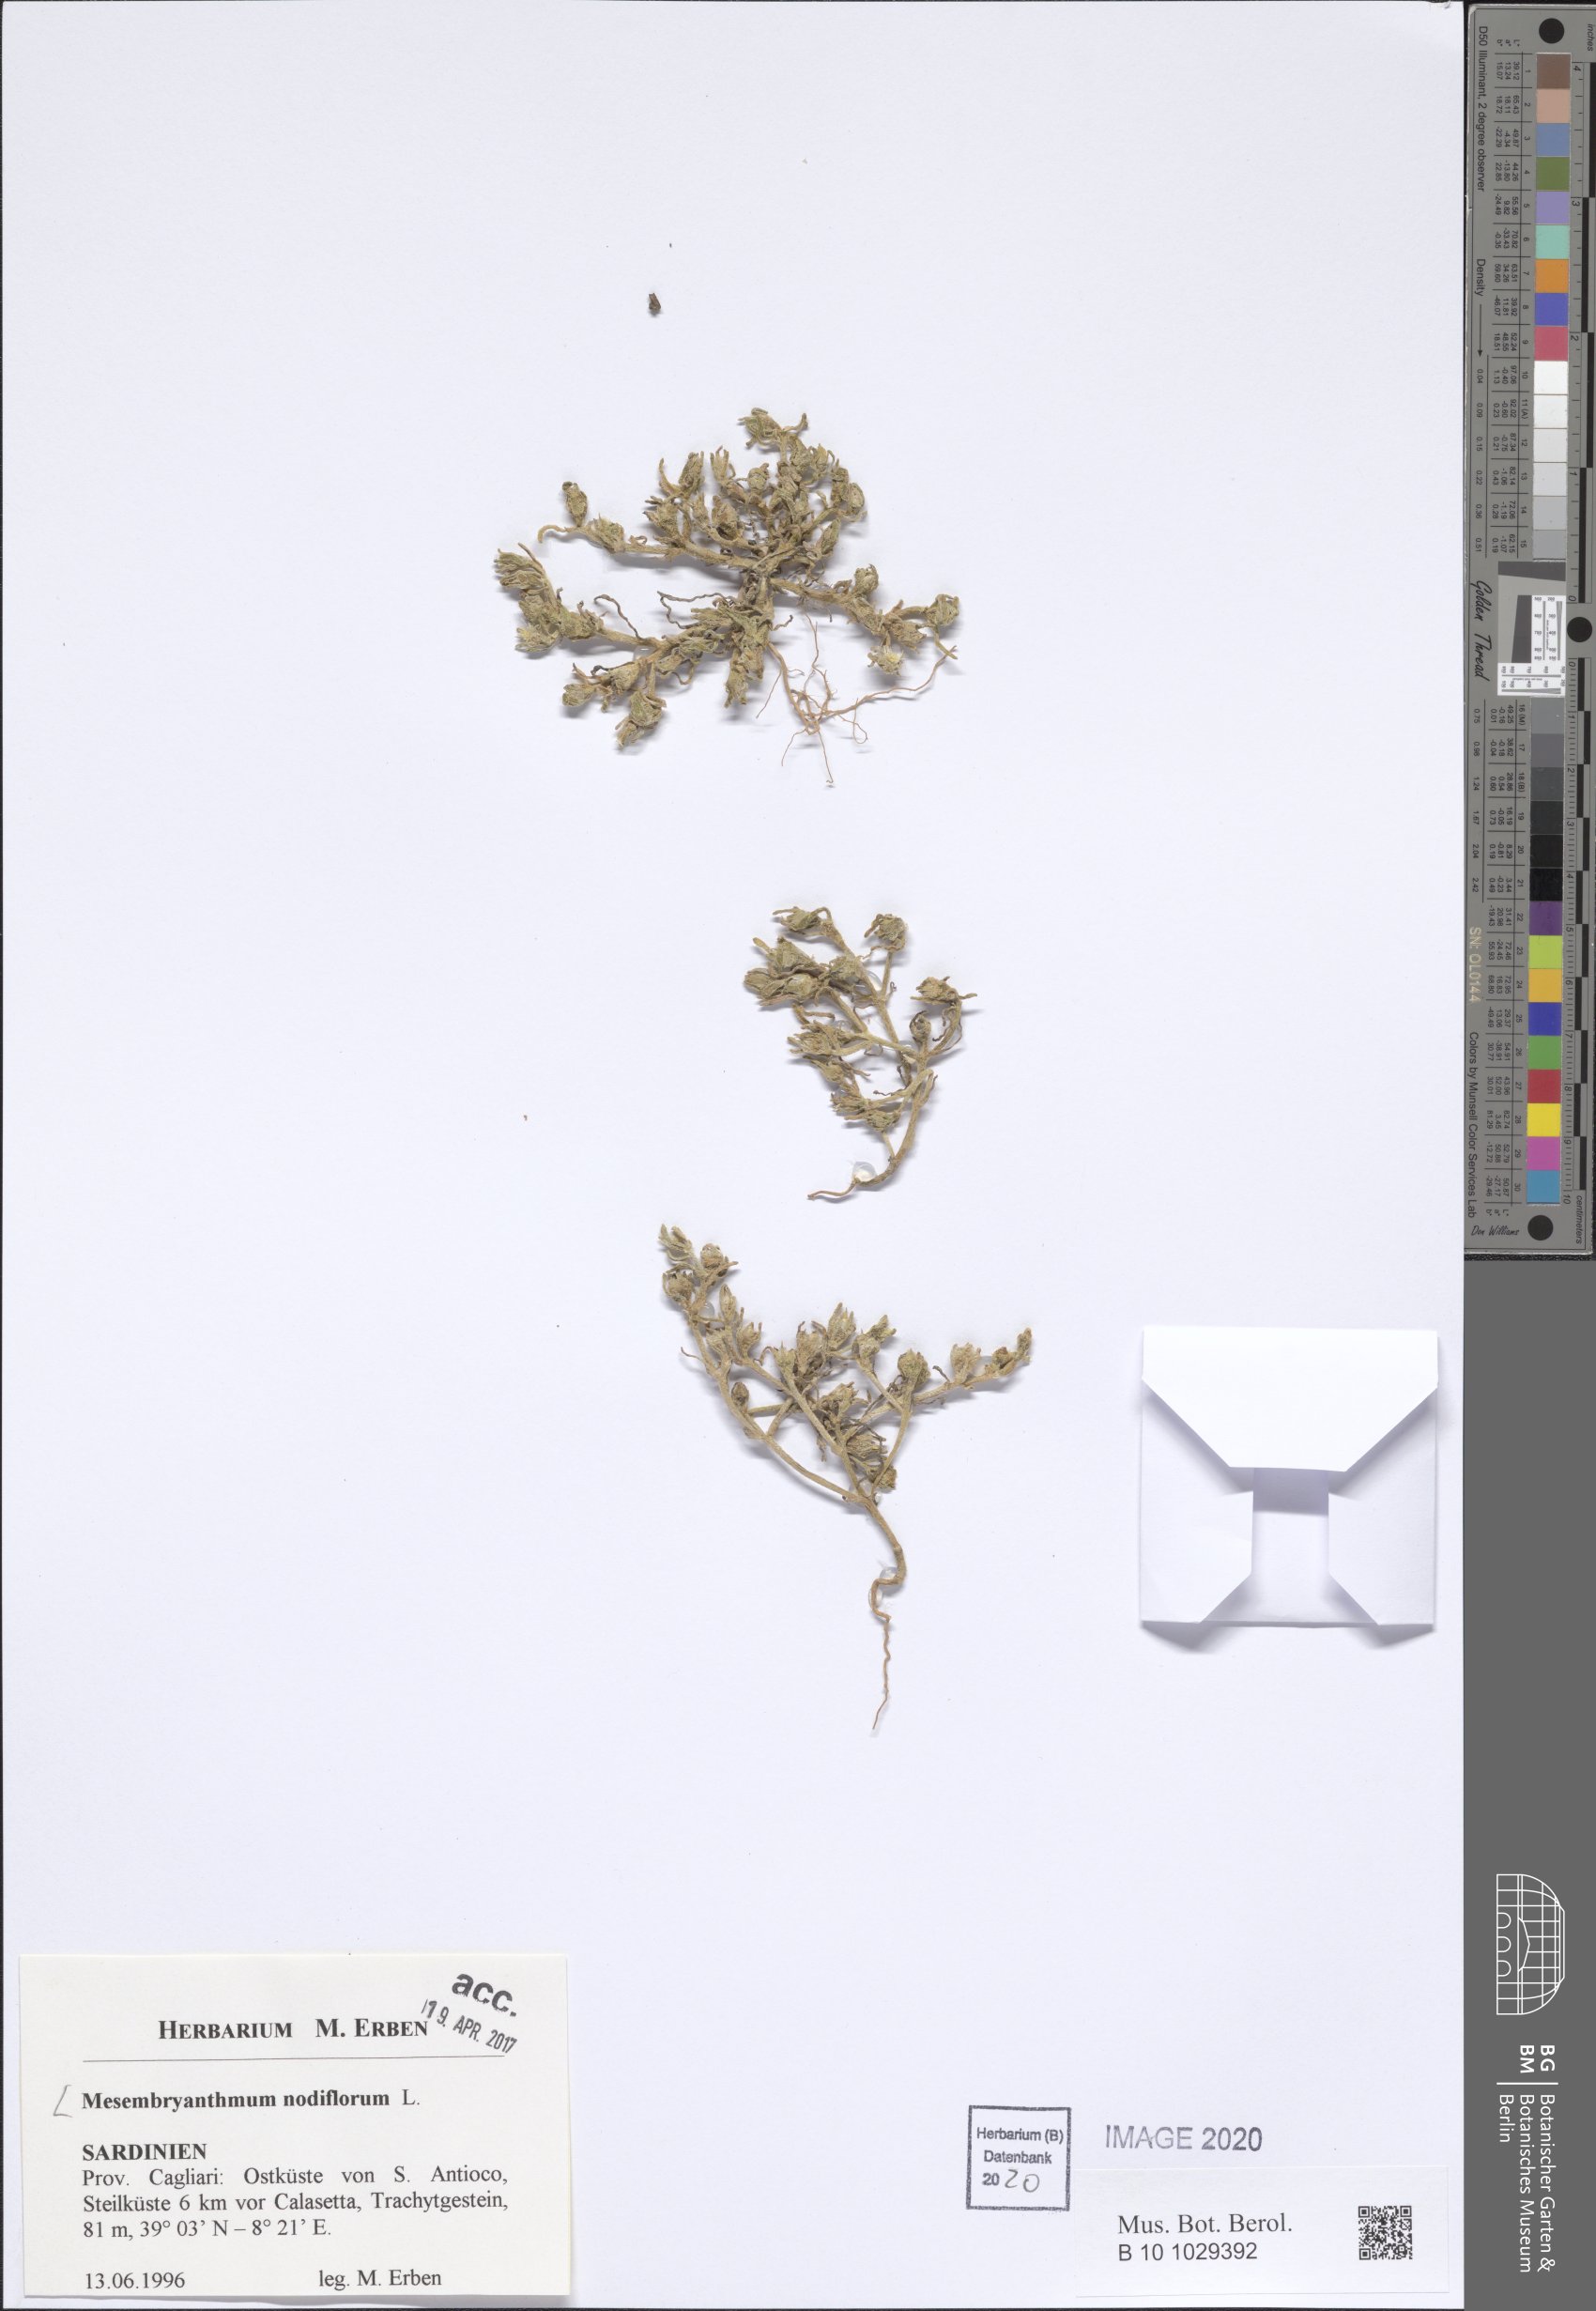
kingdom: Plantae
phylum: Tracheophyta
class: Magnoliopsida
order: Caryophyllales
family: Aizoaceae
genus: Mesembryanthemum
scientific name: Mesembryanthemum nodiflorum
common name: Slenderleaf iceplant
